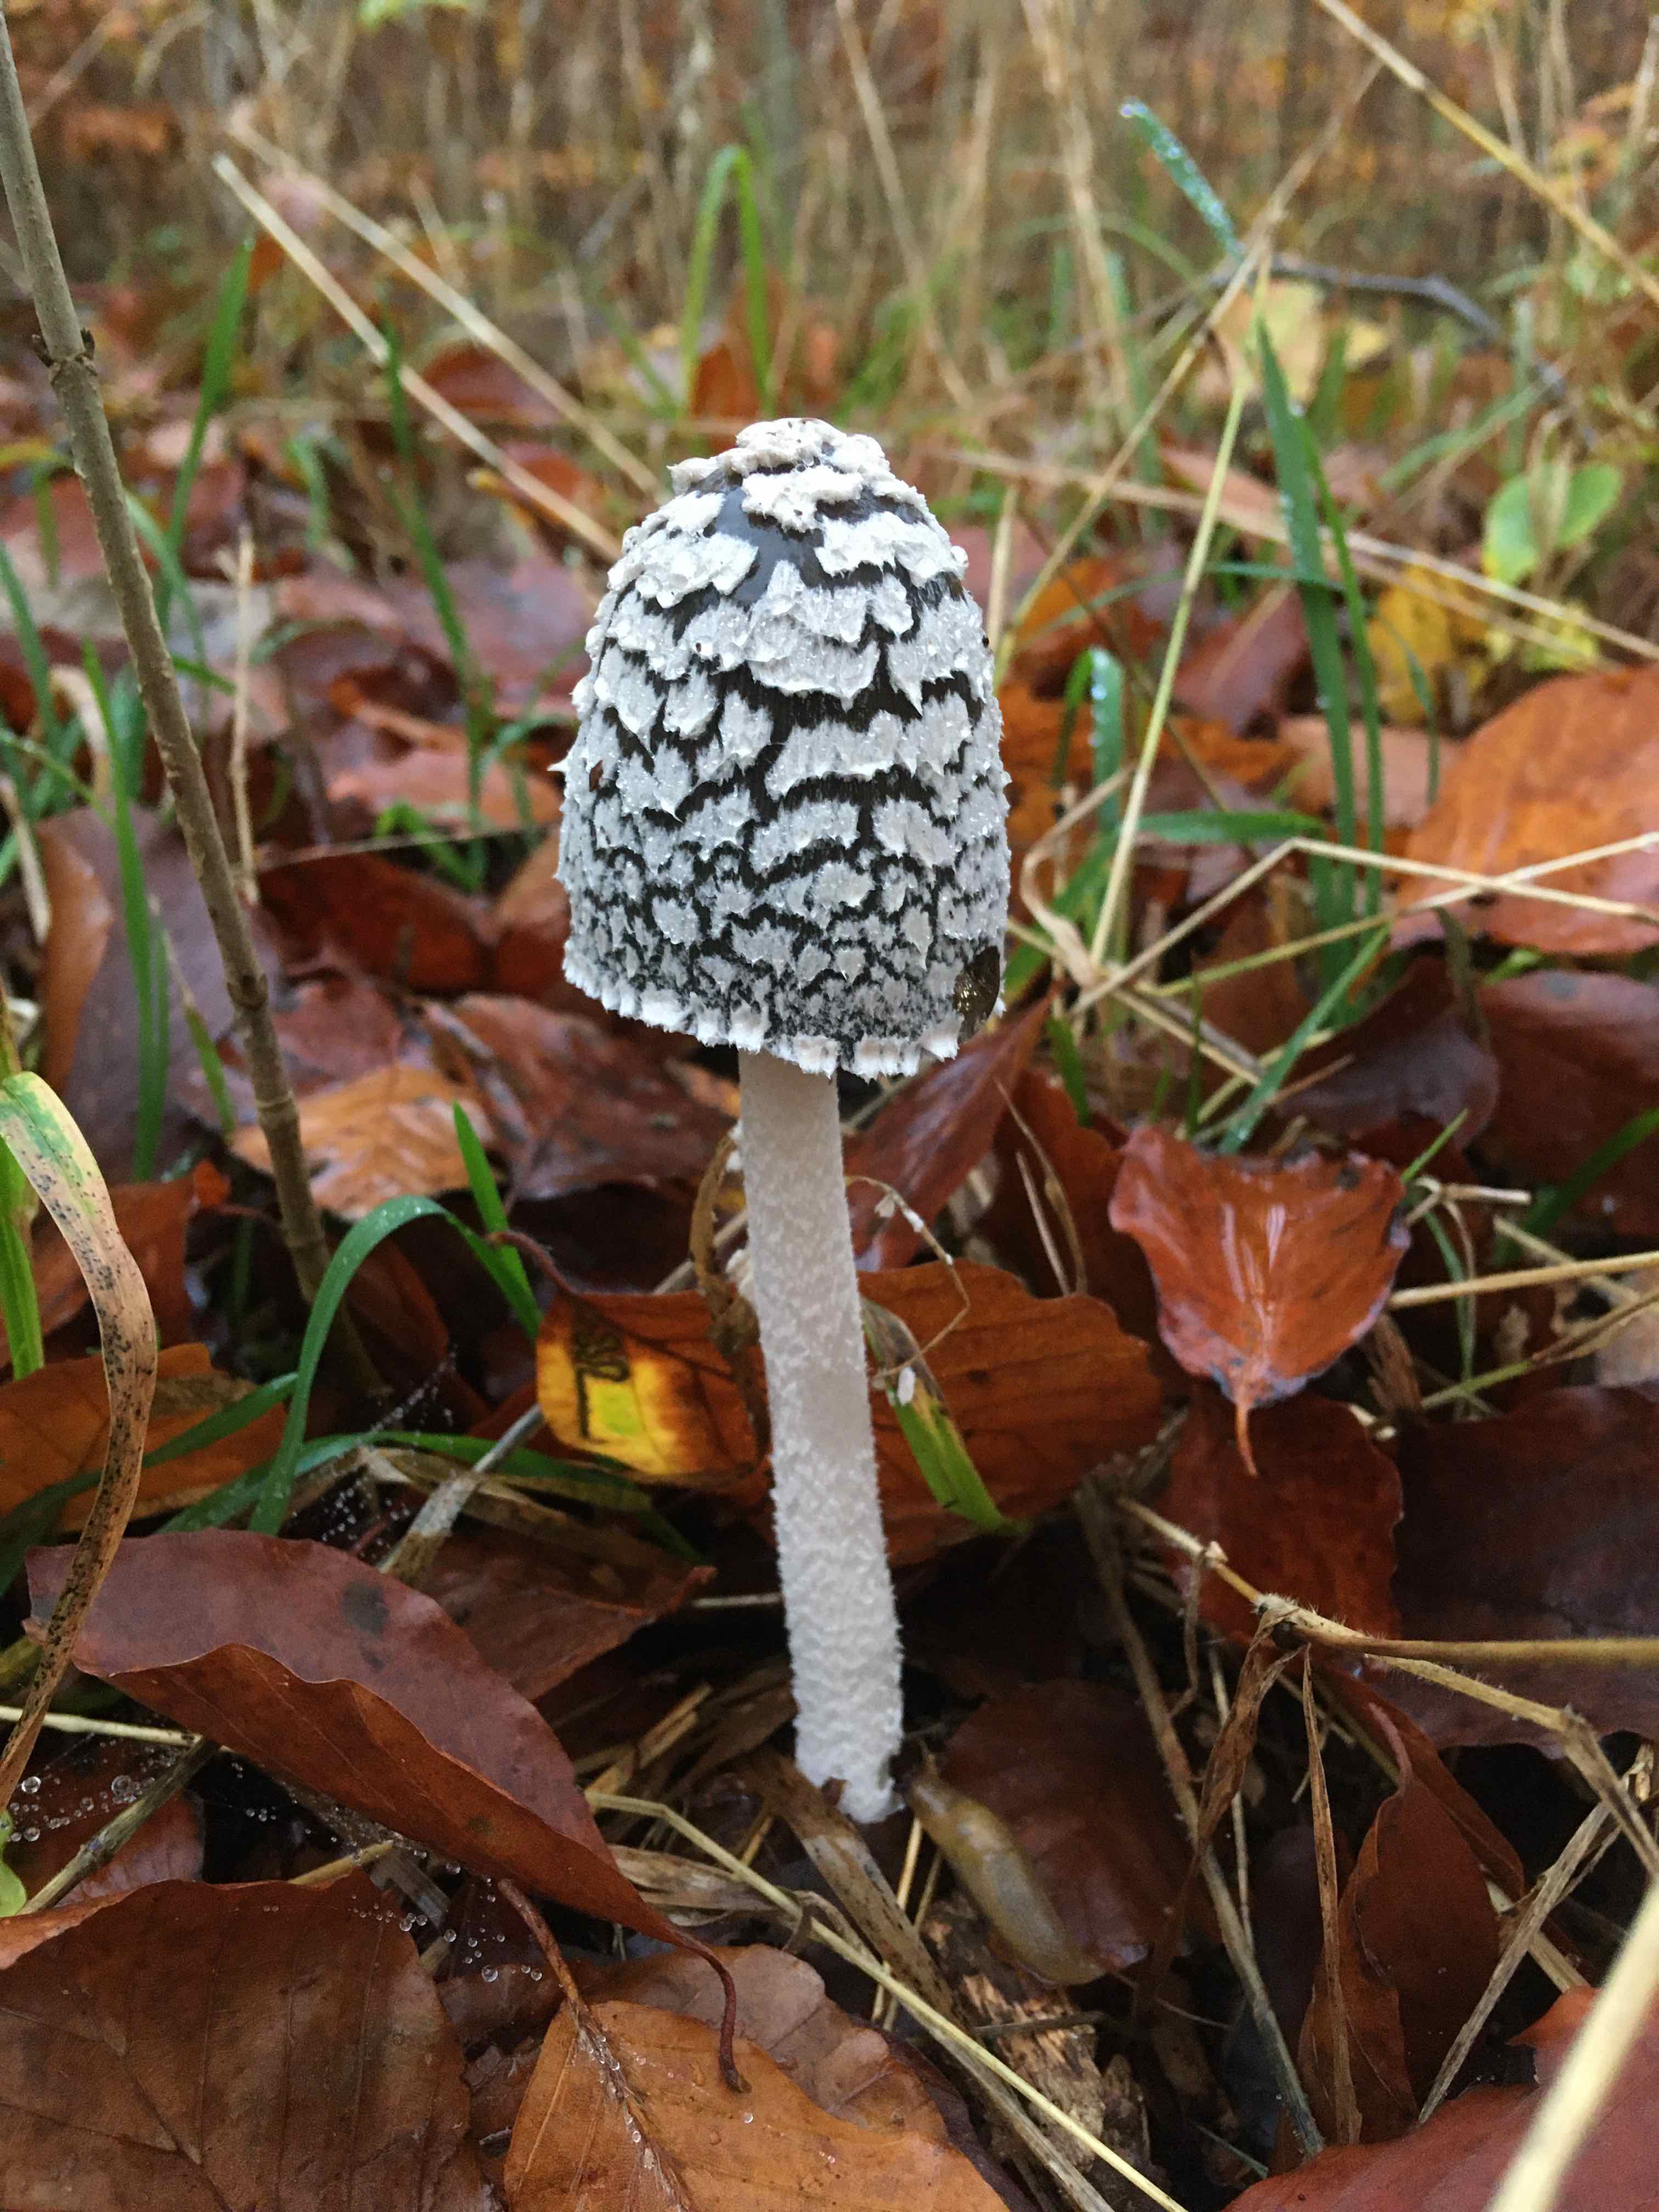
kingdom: Fungi
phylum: Basidiomycota
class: Agaricomycetes
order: Agaricales
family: Psathyrellaceae
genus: Coprinopsis
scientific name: Coprinopsis picacea
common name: skade-blækhat
